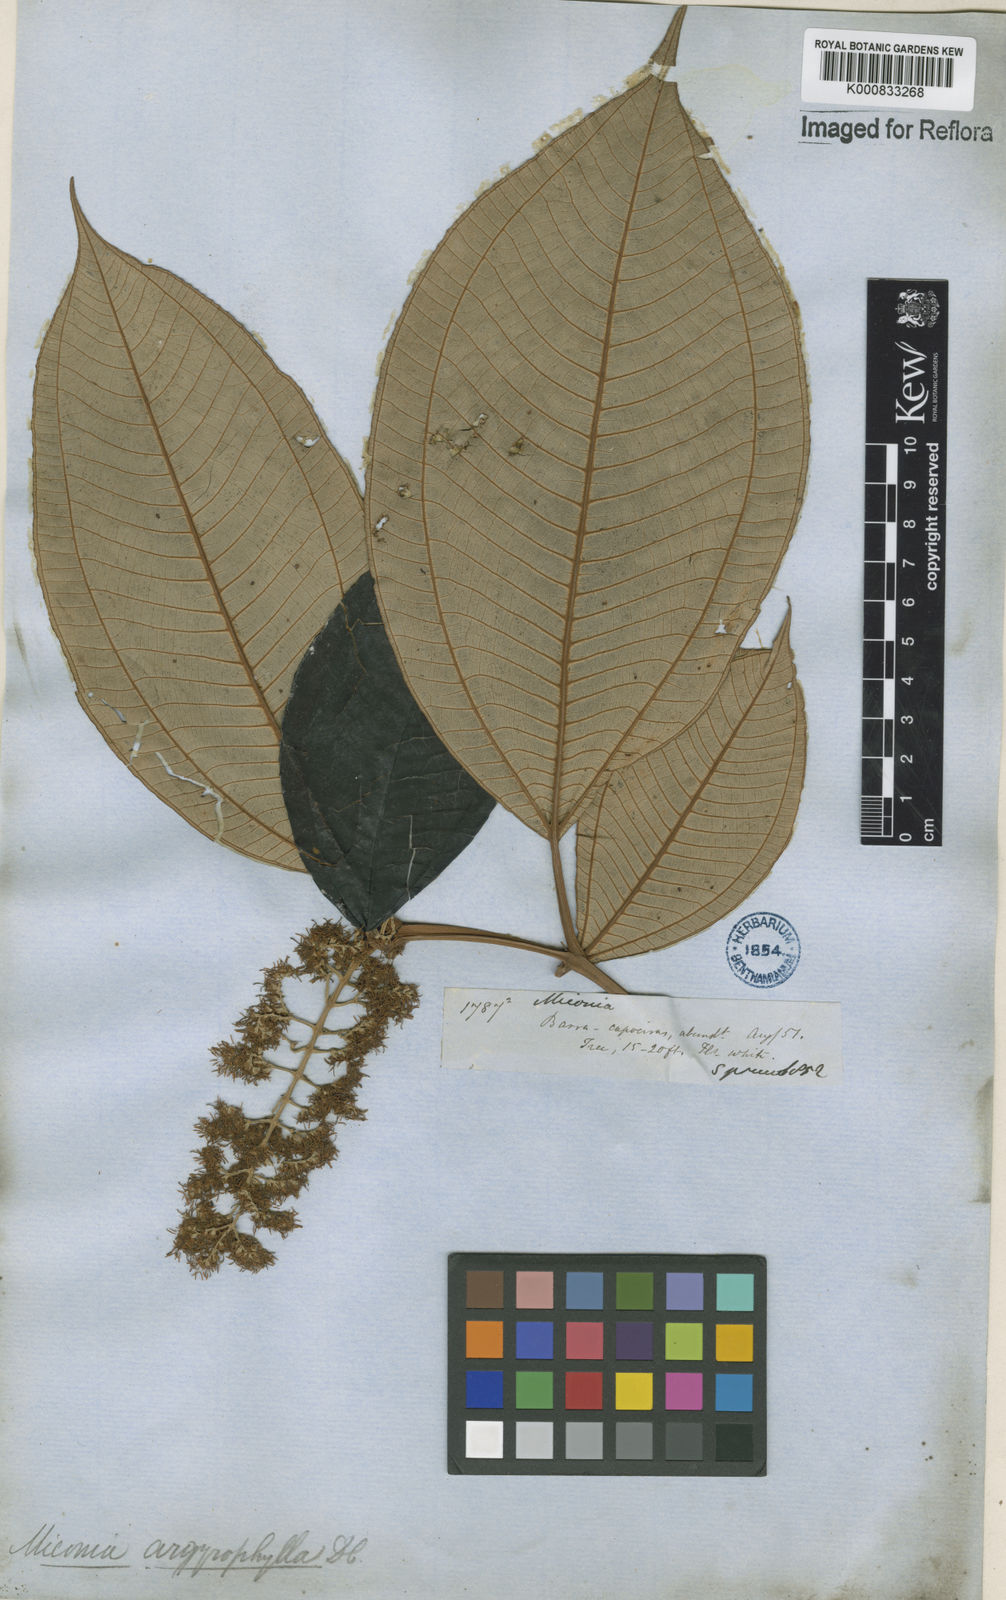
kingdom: Plantae
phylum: Tracheophyta
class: Magnoliopsida
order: Myrtales
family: Melastomataceae
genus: Miconia
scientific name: Miconia argyrophylla
